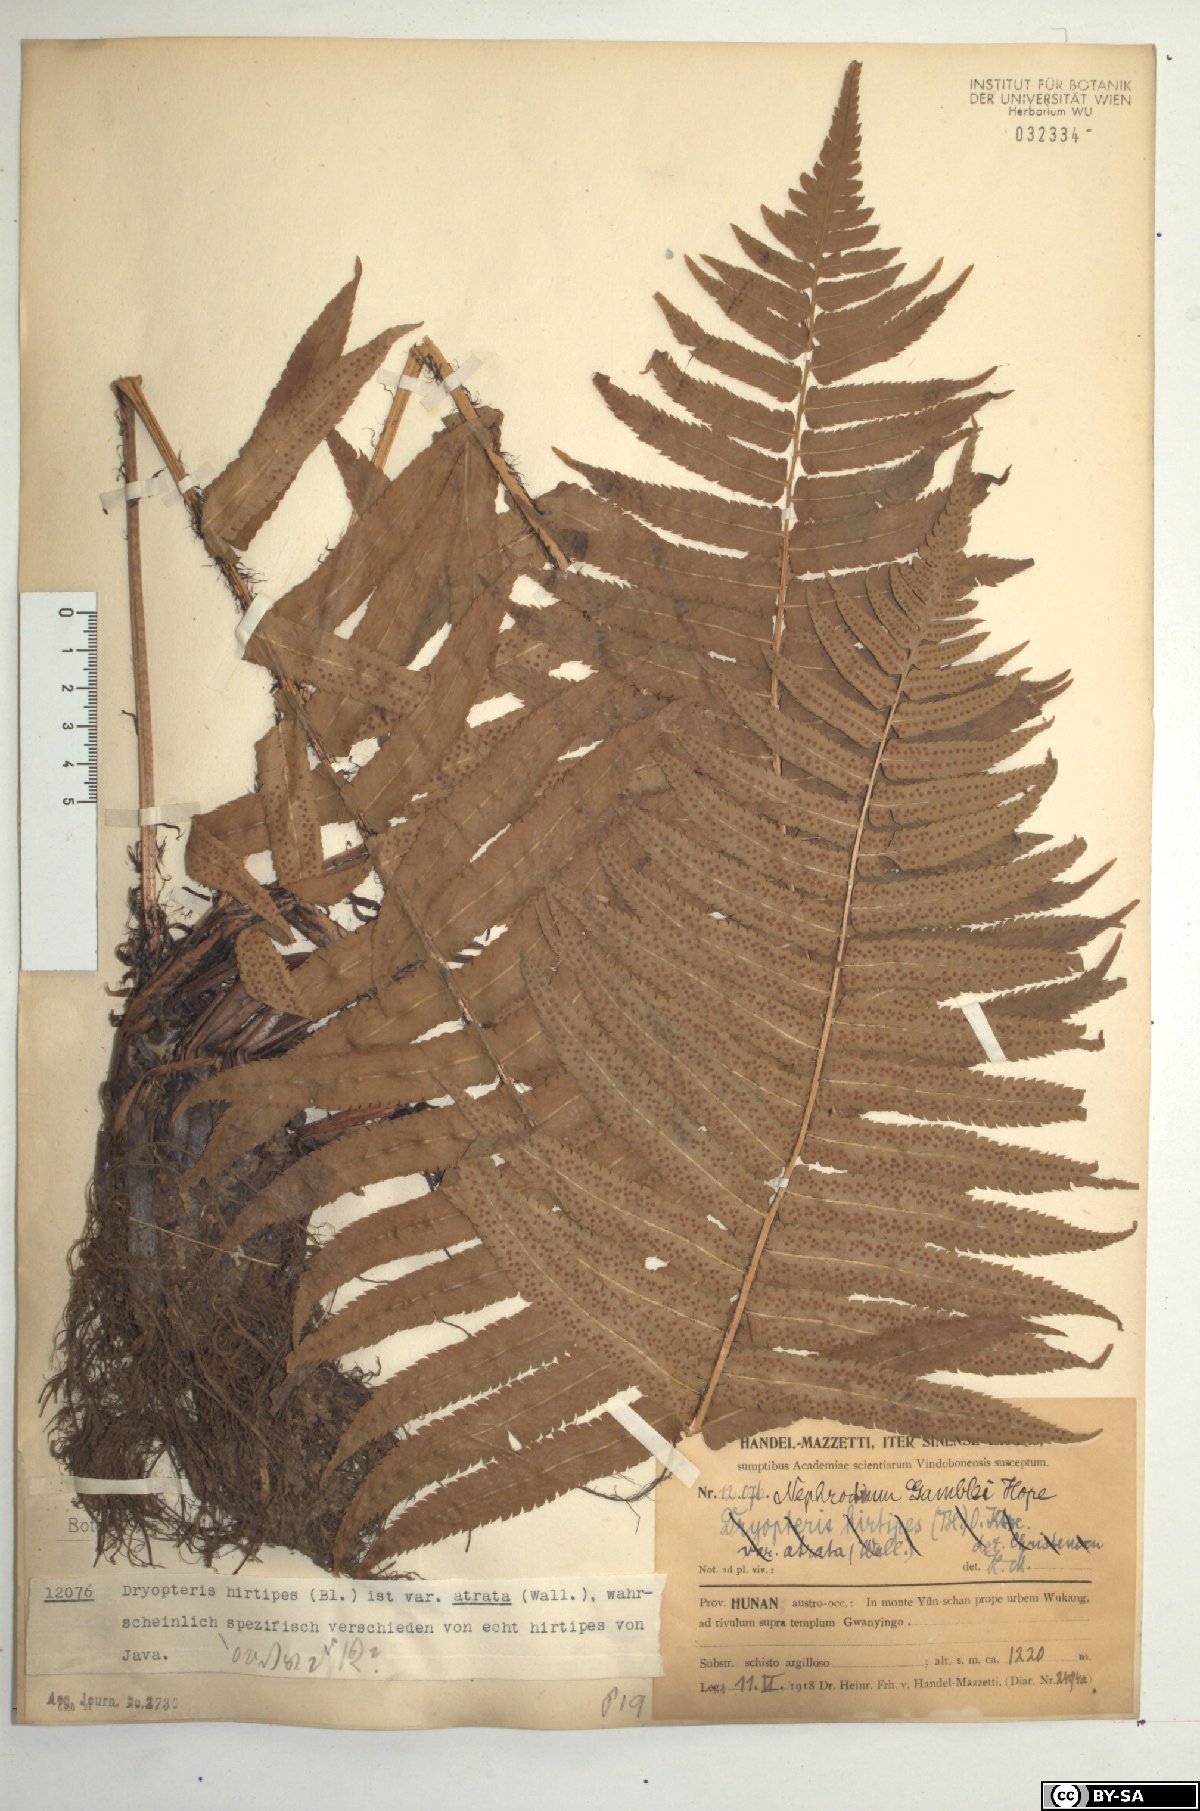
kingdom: Plantae
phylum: Tracheophyta
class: Polypodiopsida
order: Polypodiales
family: Dryopteridaceae
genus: Dryopteris
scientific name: Dryopteris stenolepis
